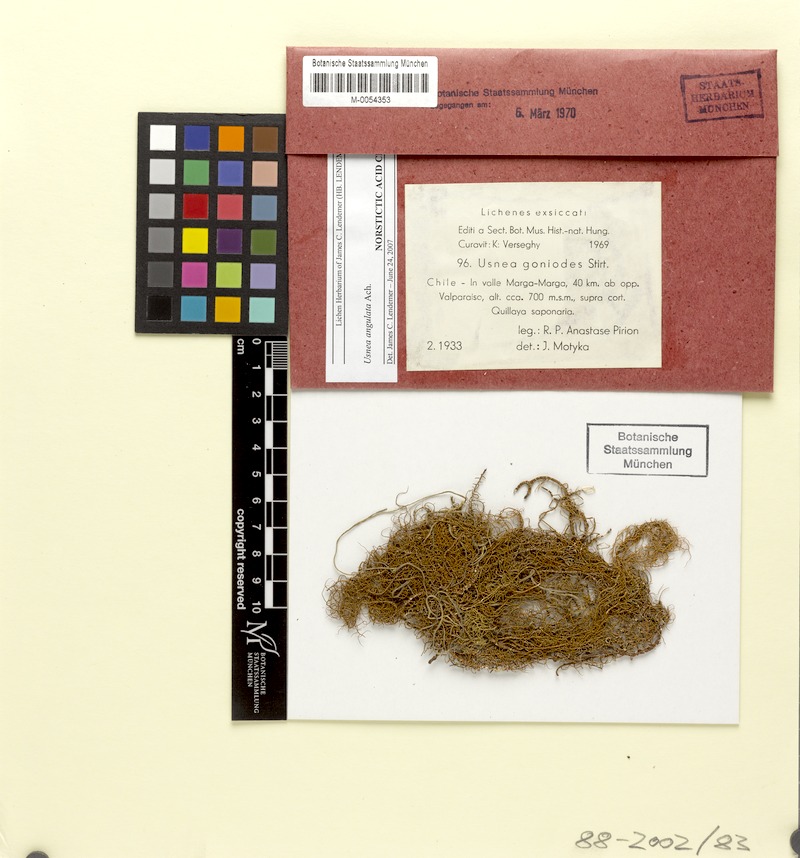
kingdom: Fungi
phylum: Ascomycota
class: Lecanoromycetes
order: Lecanorales
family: Parmeliaceae
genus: Usnea
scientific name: Usnea angulata
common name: Old-man’s beard lichen
